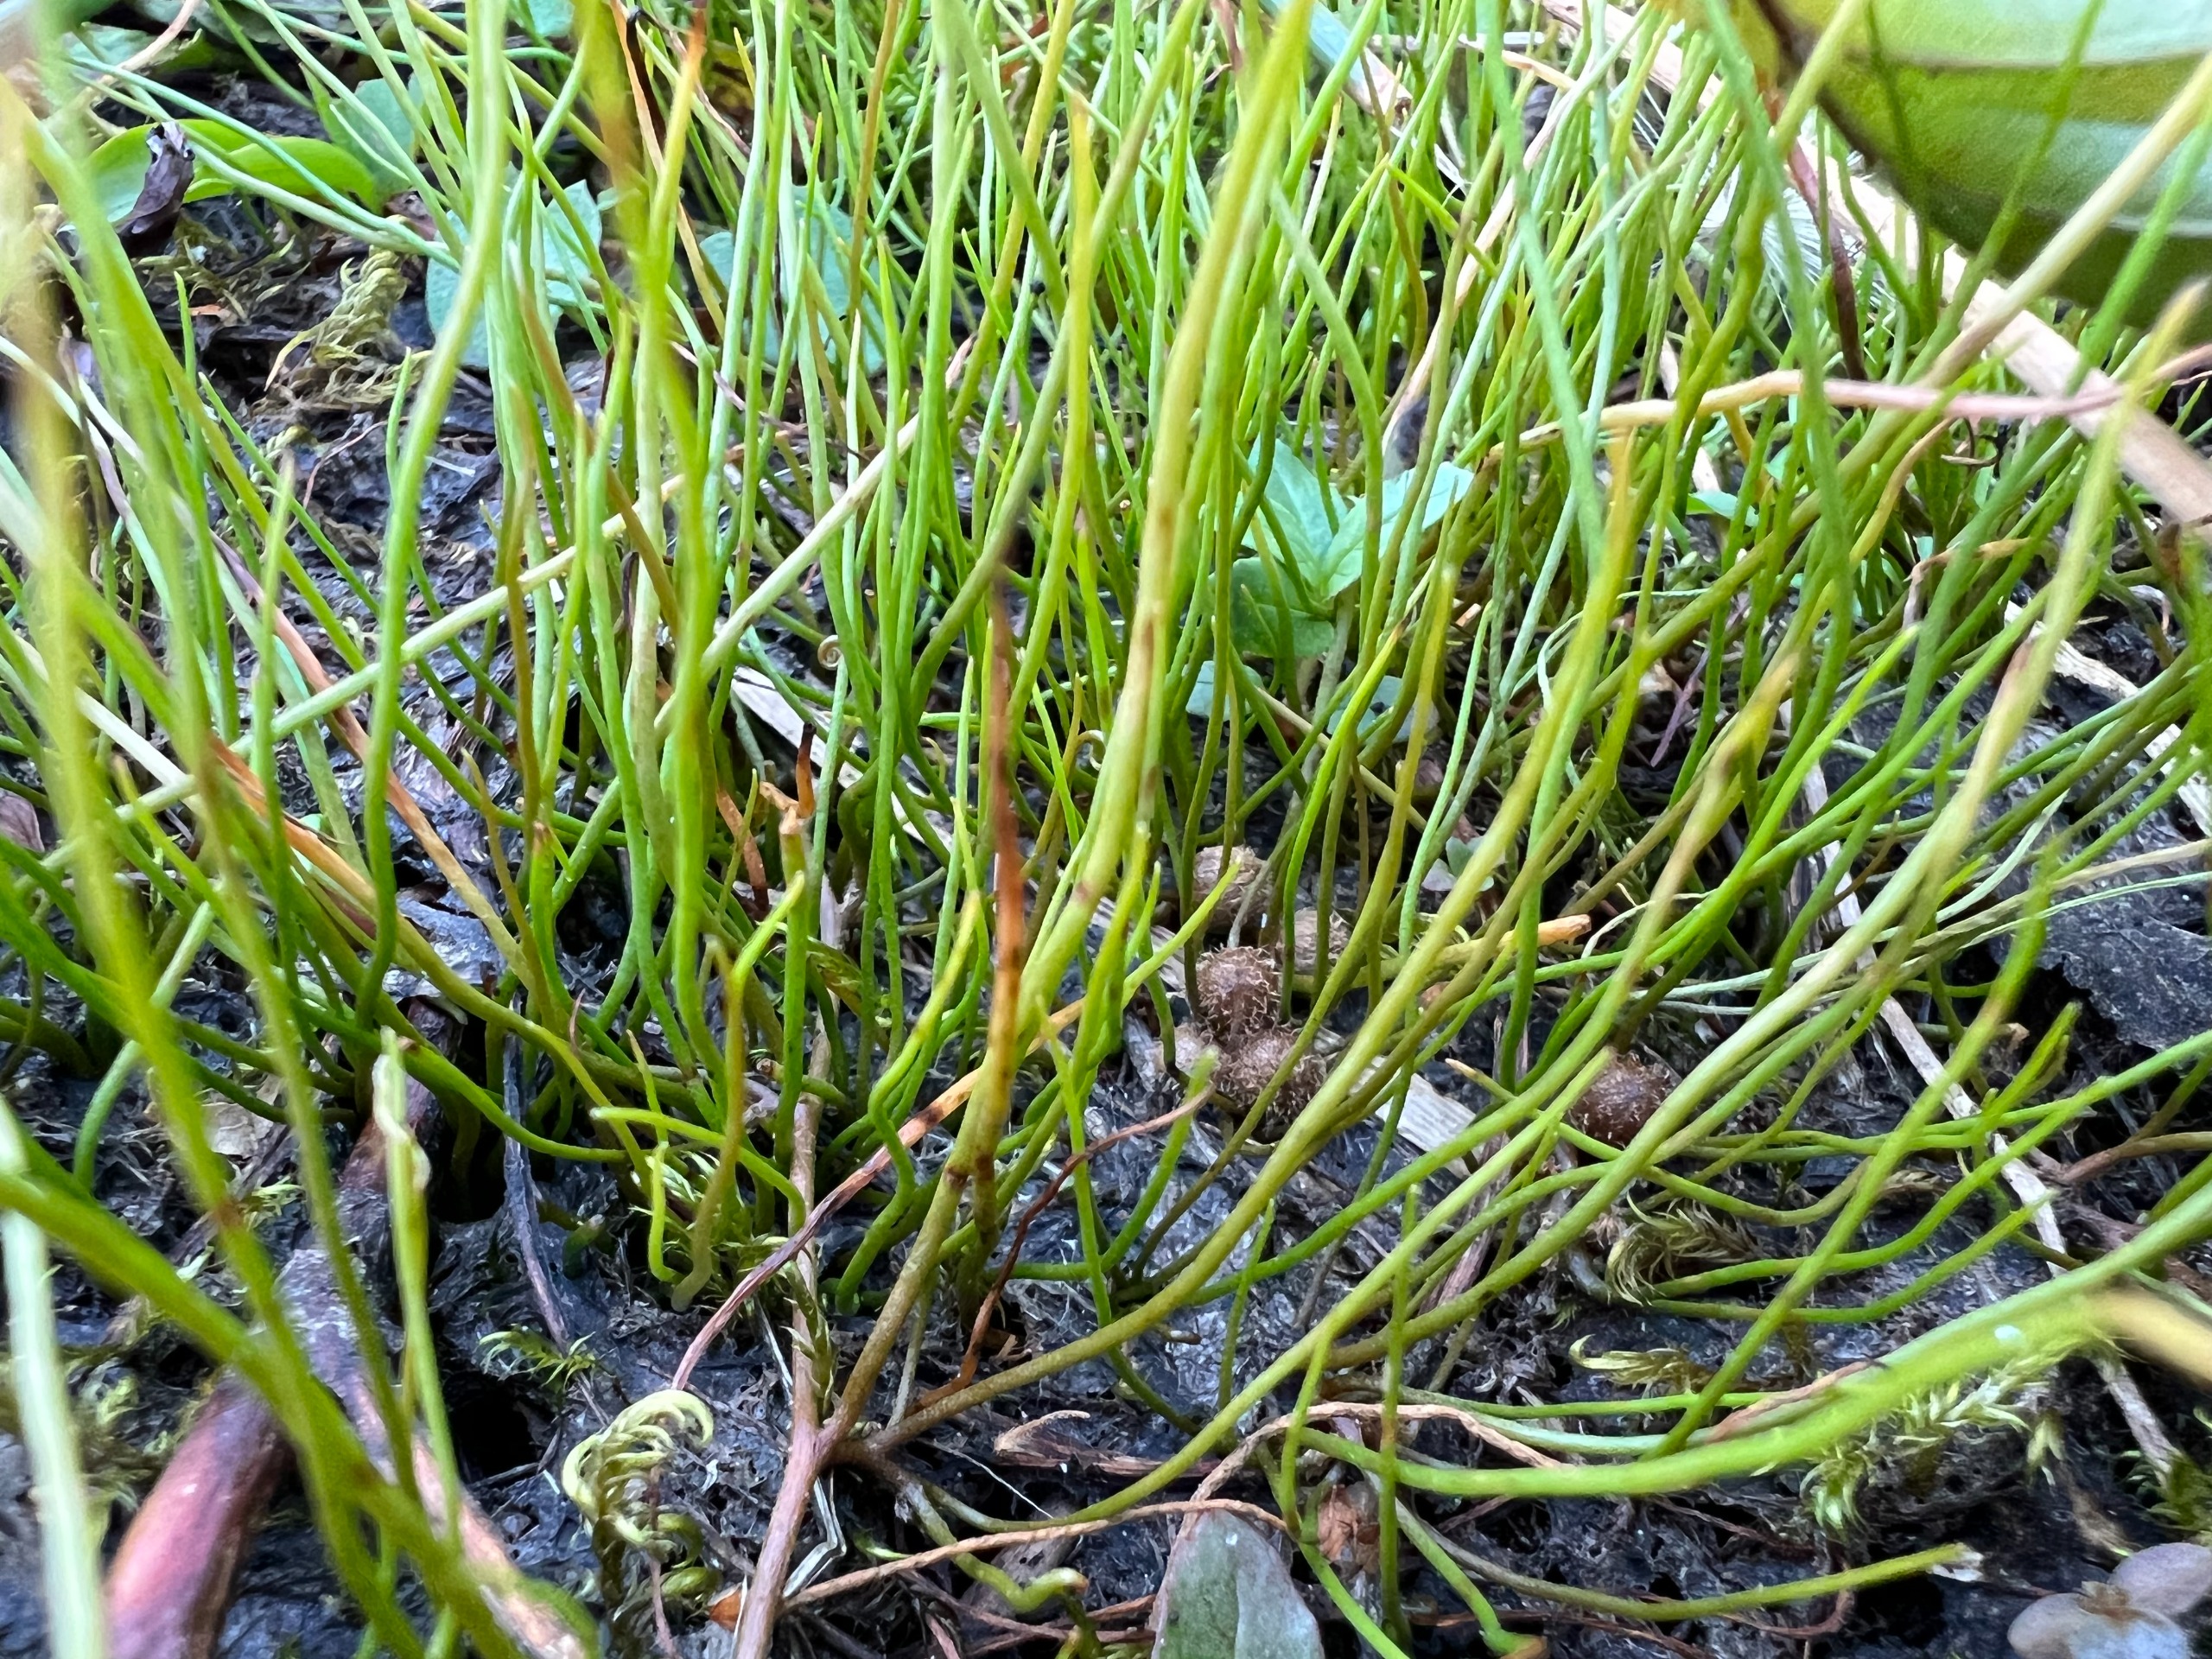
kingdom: Plantae
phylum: Tracheophyta
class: Polypodiopsida
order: Salviniales
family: Marsileaceae
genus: Pilularia
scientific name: Pilularia globulifera
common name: Pilledrager
